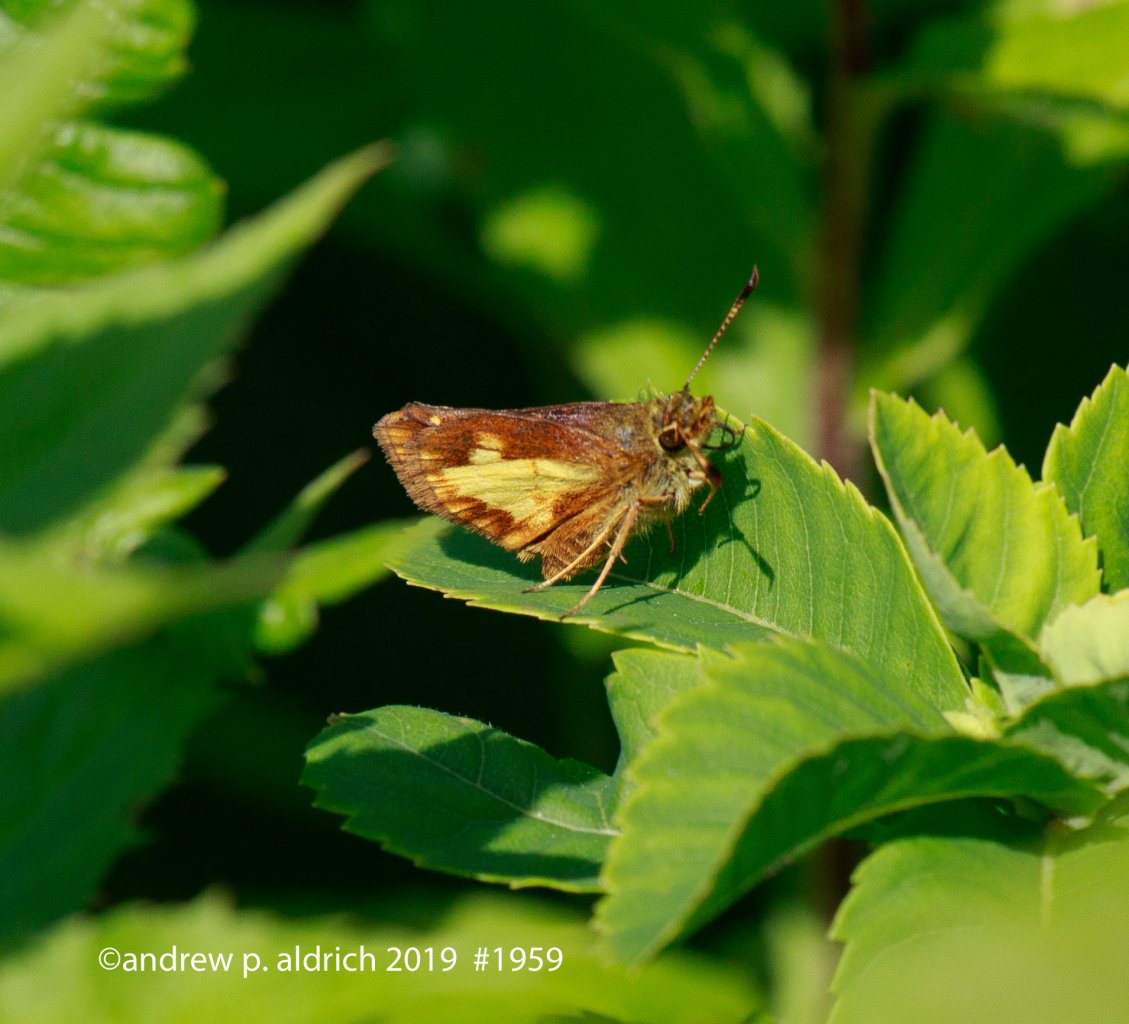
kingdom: Animalia
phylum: Arthropoda
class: Insecta
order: Lepidoptera
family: Hesperiidae
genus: Poanes
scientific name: Poanes massasoit
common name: Mulberry Wing
